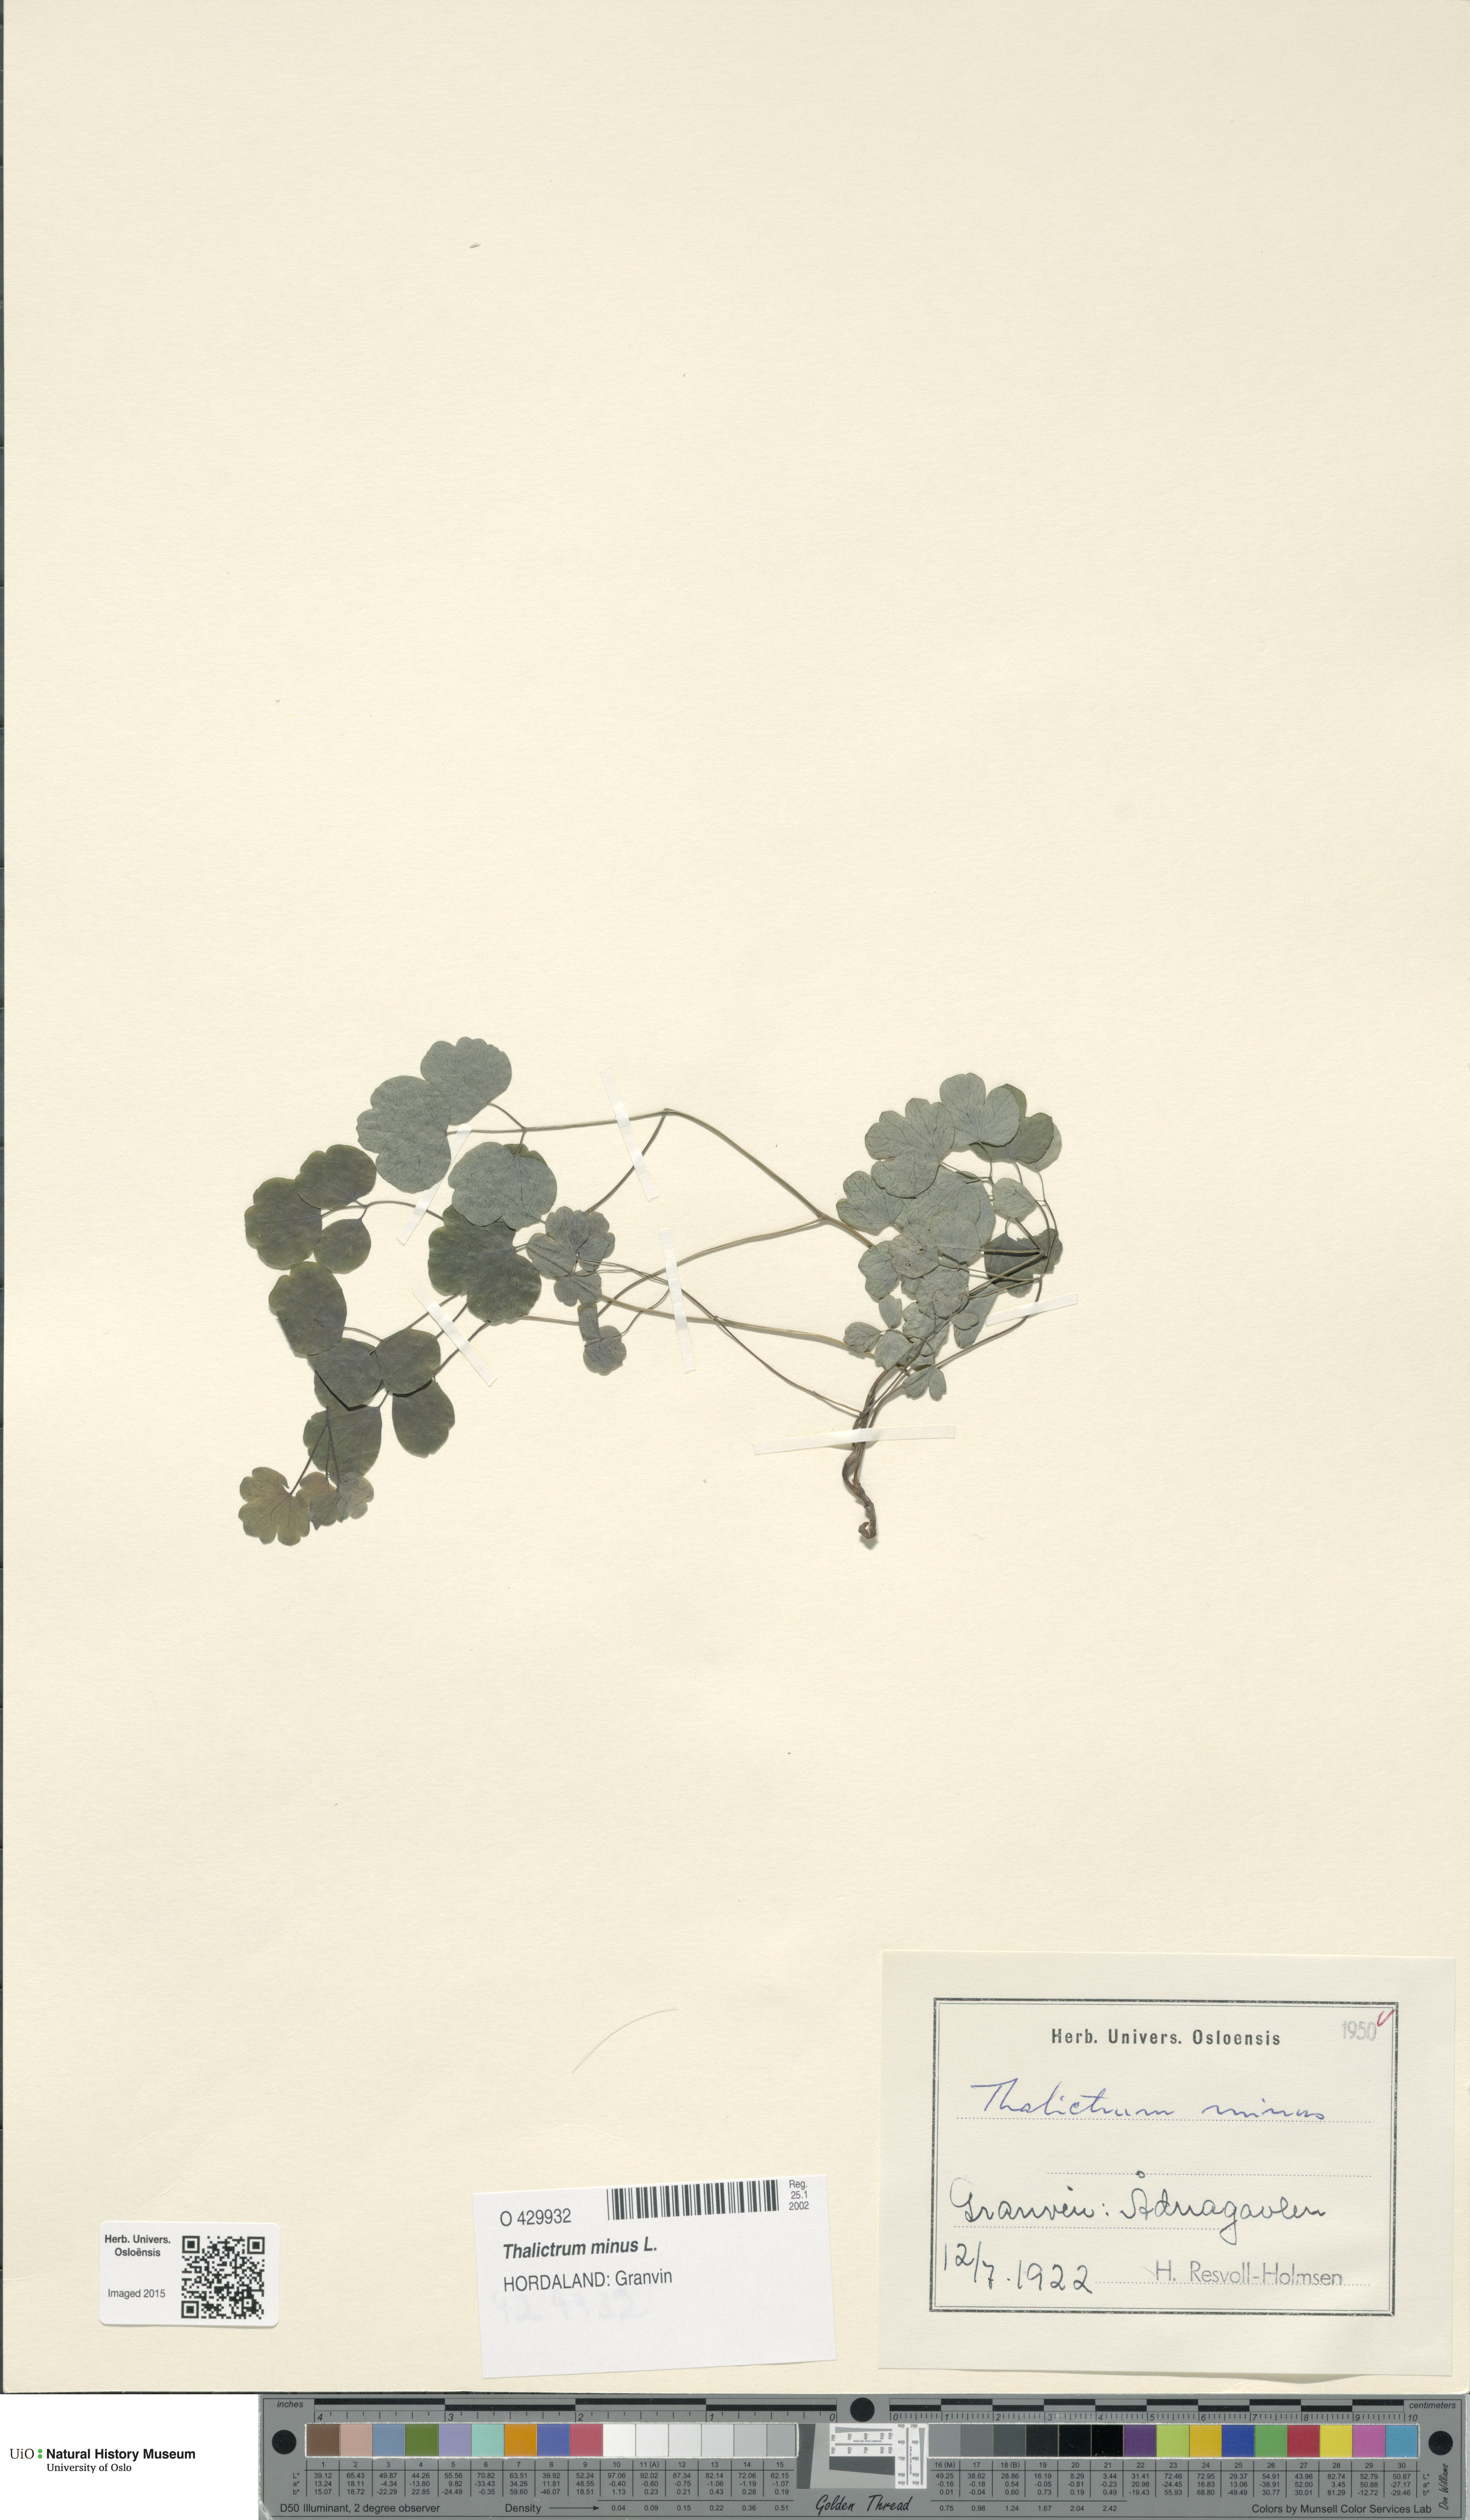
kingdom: Plantae
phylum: Tracheophyta
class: Magnoliopsida
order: Ranunculales
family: Ranunculaceae
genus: Thalictrum
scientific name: Thalictrum minus
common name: Lesser meadow-rue
